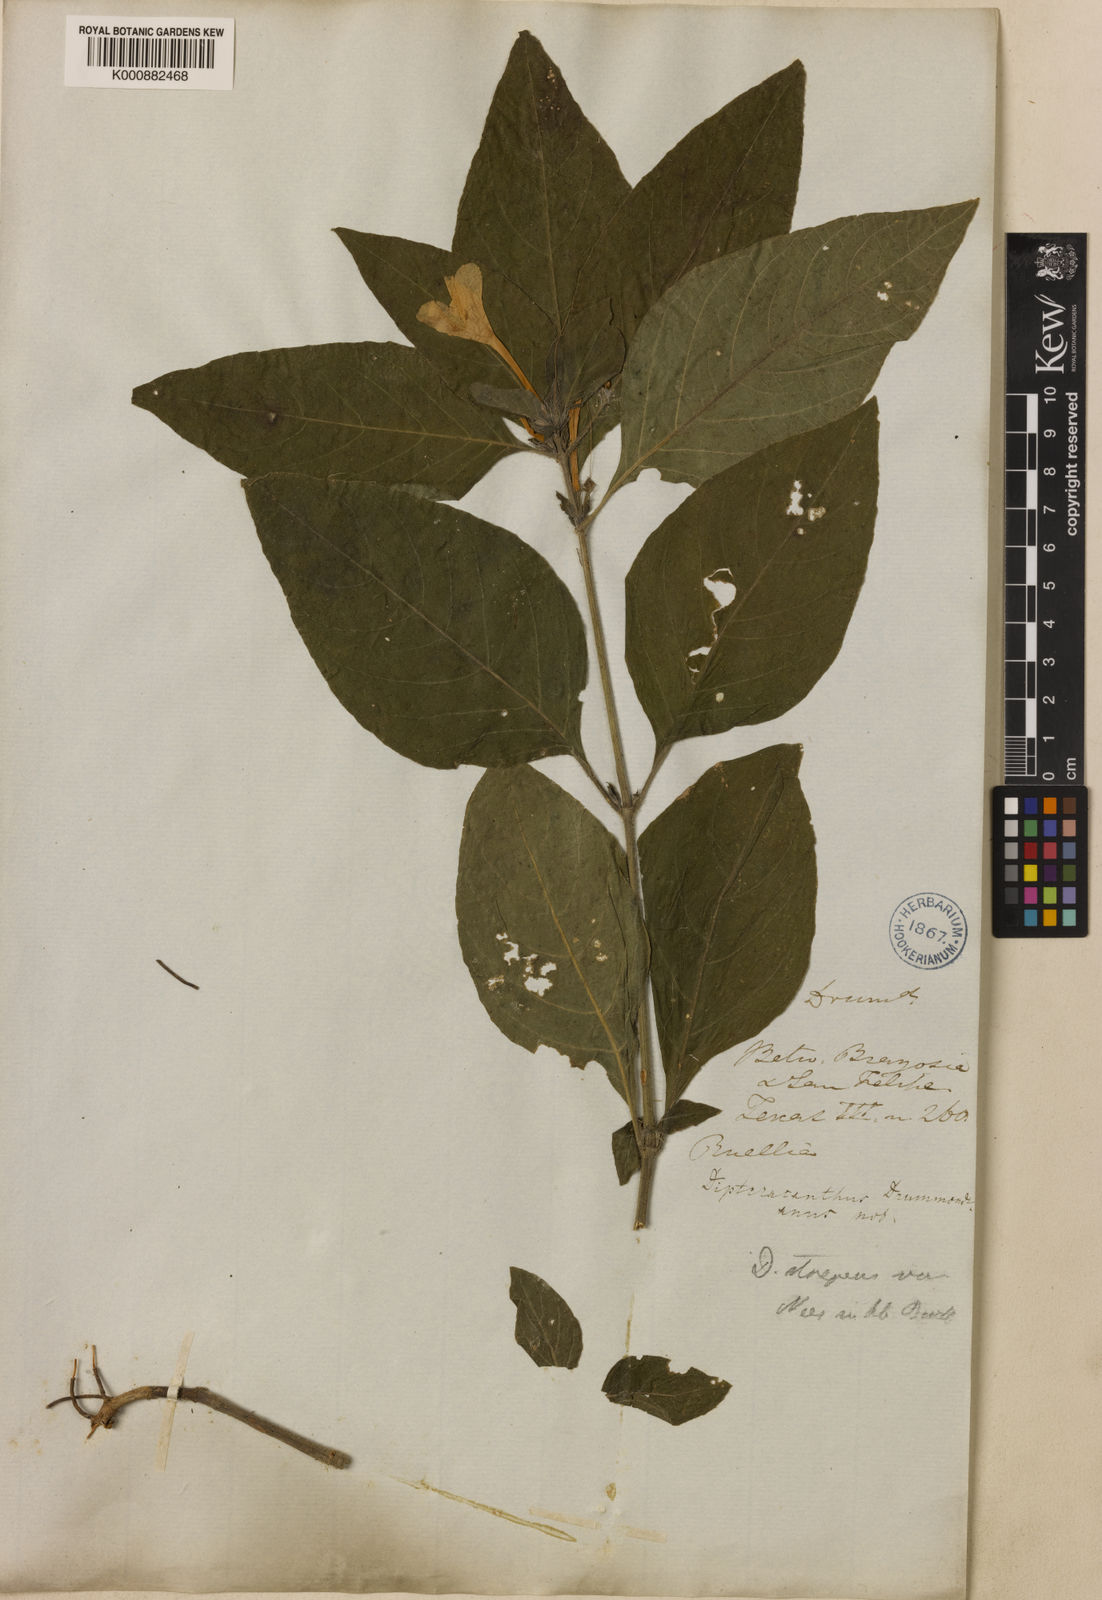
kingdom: Plantae
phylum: Tracheophyta
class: Magnoliopsida
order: Lamiales
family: Acanthaceae
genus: Ruellia
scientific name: Ruellia drummondiana
